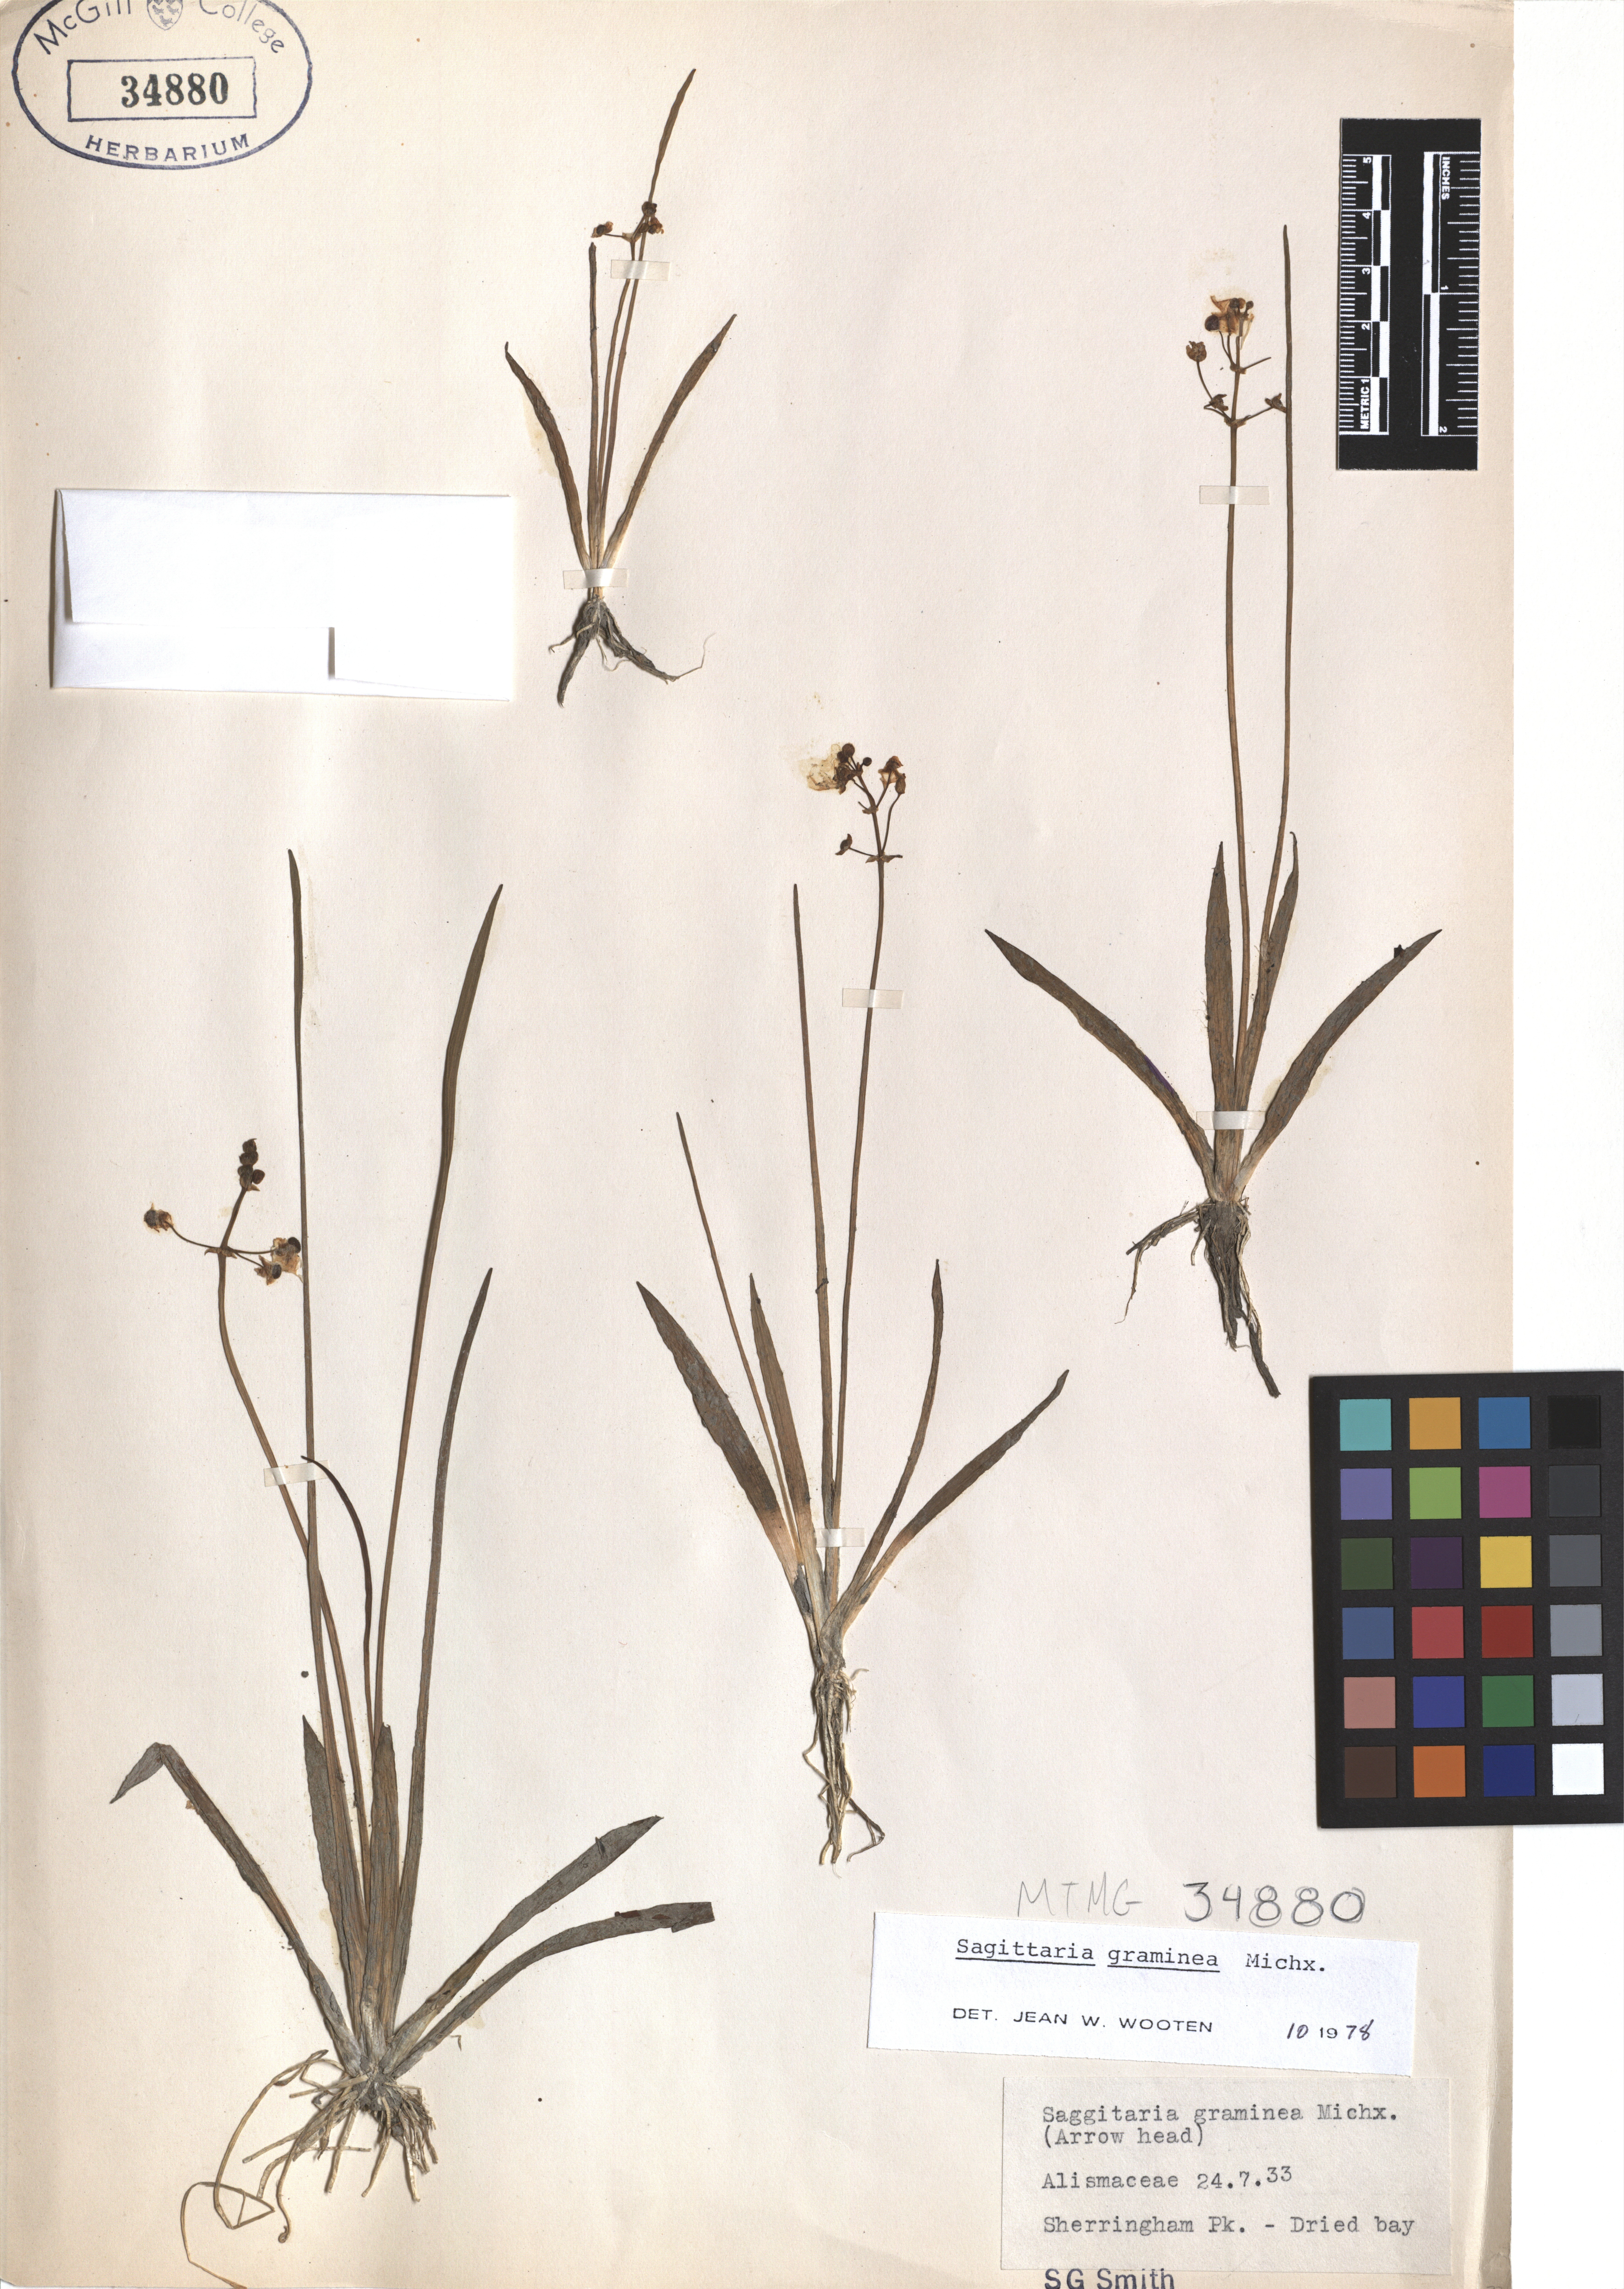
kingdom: Plantae
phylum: Tracheophyta
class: Liliopsida
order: Alismatales
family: Alismataceae
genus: Sagittaria
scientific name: Sagittaria graminea
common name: Grass-leaved arrowhead
